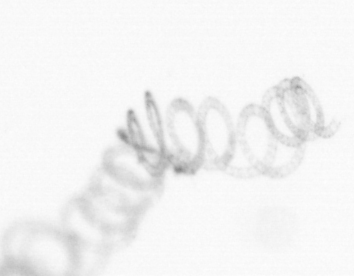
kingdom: Chromista
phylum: Ochrophyta
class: Bacillariophyceae
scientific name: Bacillariophyceae
